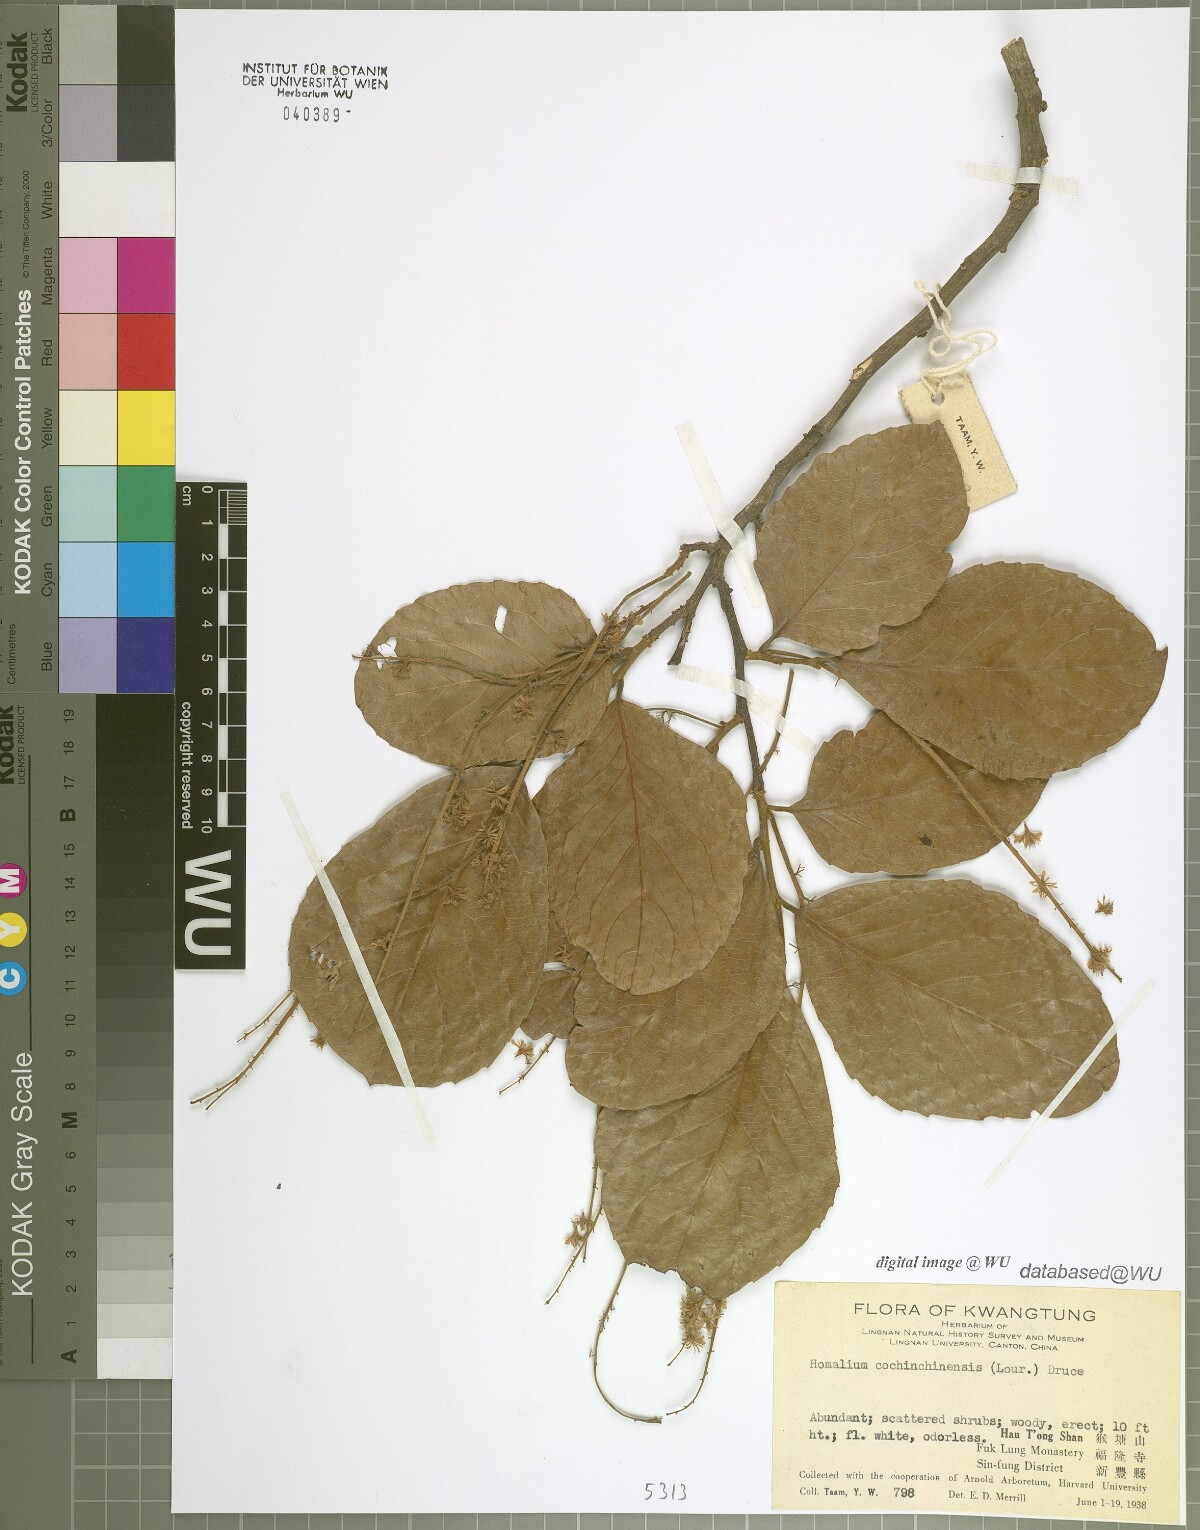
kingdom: Plantae
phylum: Tracheophyta
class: Magnoliopsida
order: Malpighiales
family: Salicaceae
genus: Homalium
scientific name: Homalium cochinchinensis
